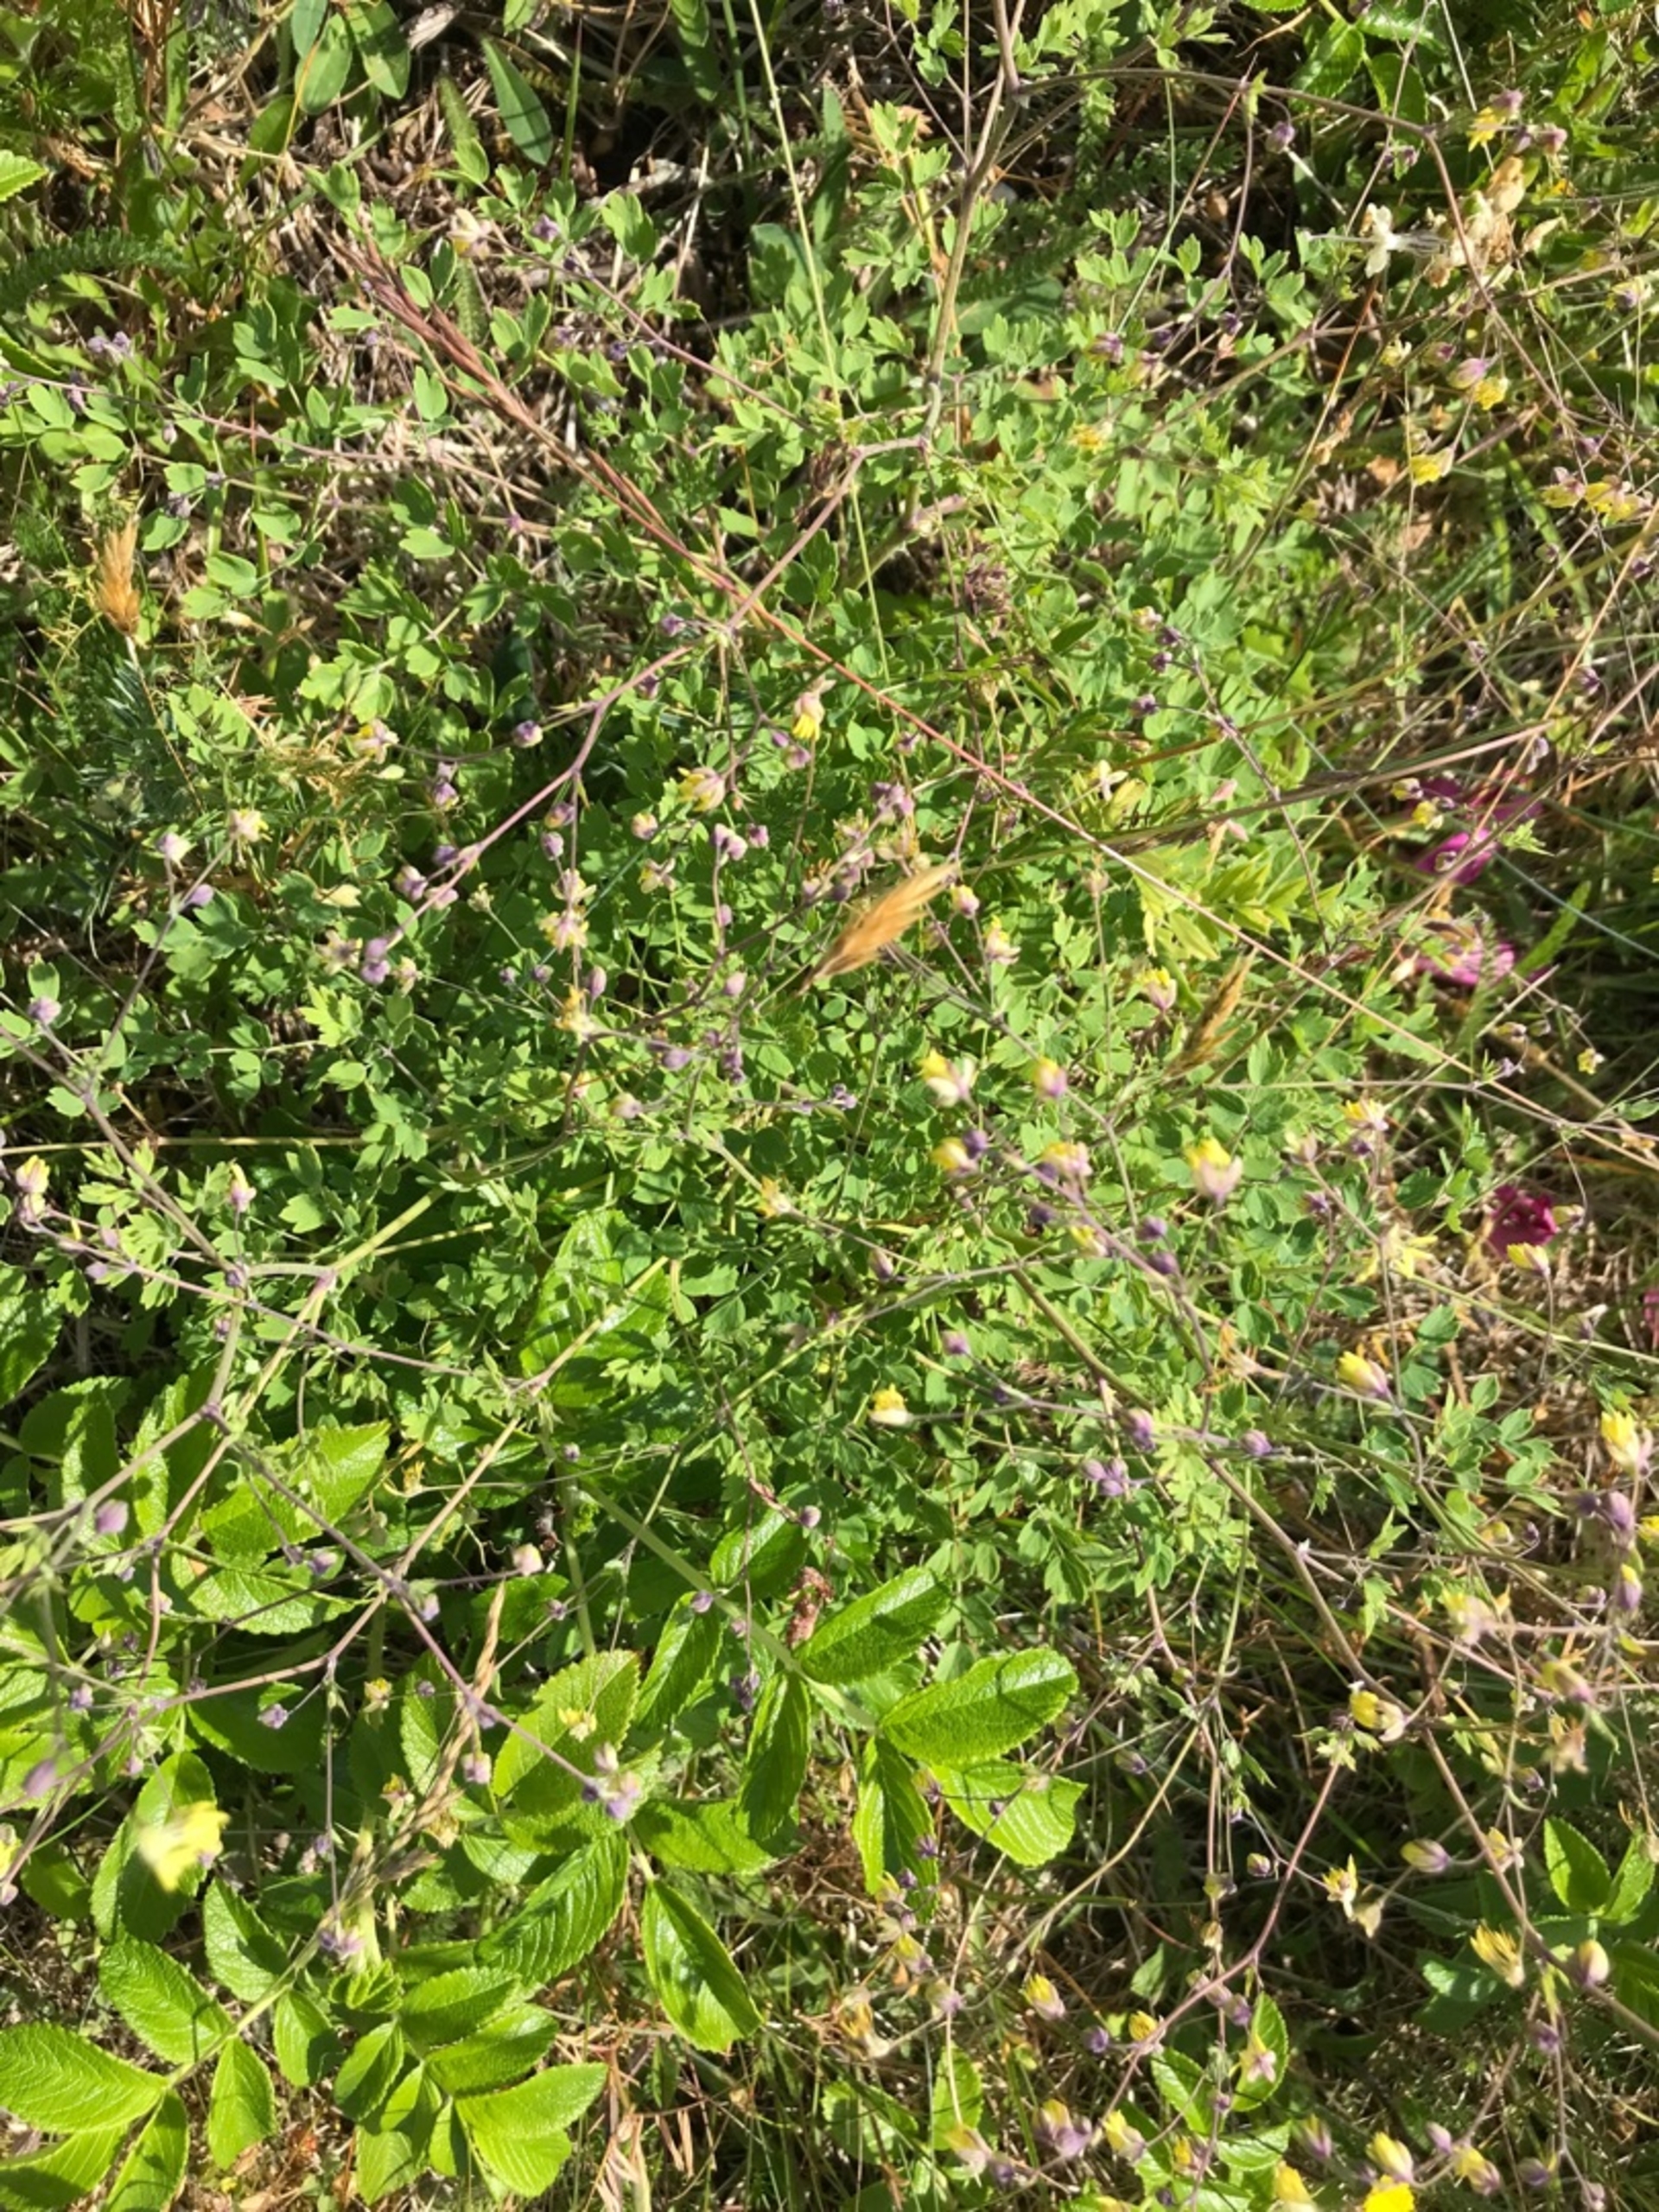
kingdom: Plantae
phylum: Tracheophyta
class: Magnoliopsida
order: Ranunculales
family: Ranunculaceae
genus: Thalictrum
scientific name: Thalictrum minus
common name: Sand-frøstjerne
